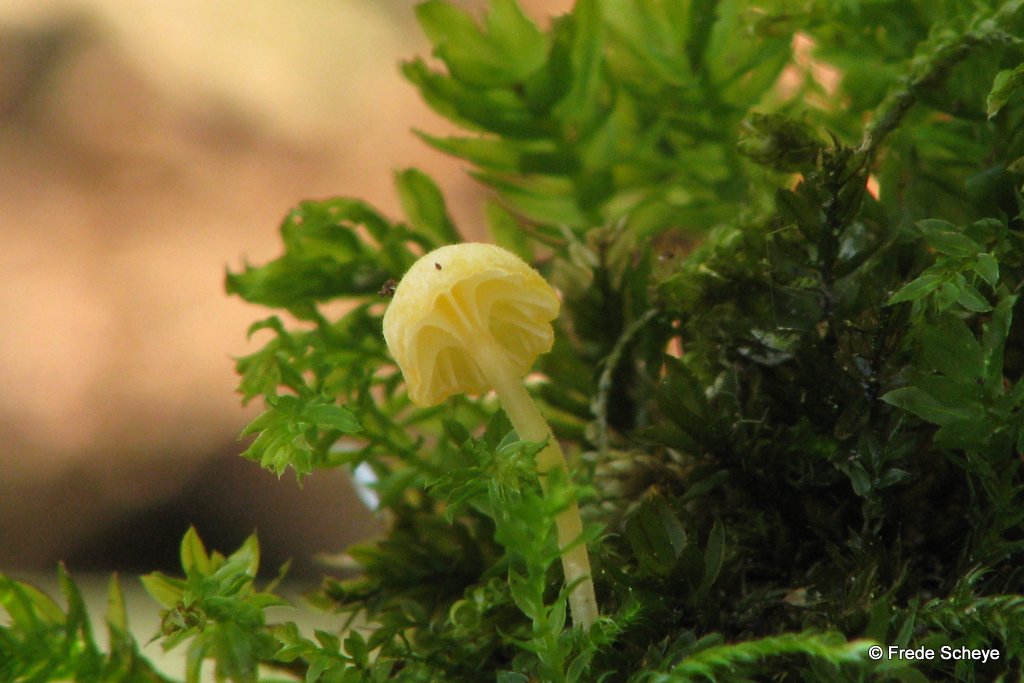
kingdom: Fungi
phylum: Basidiomycota
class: Agaricomycetes
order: Hymenochaetales
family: Rickenellaceae
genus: Rickenella
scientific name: Rickenella fibula
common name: orange mosnavlehat
